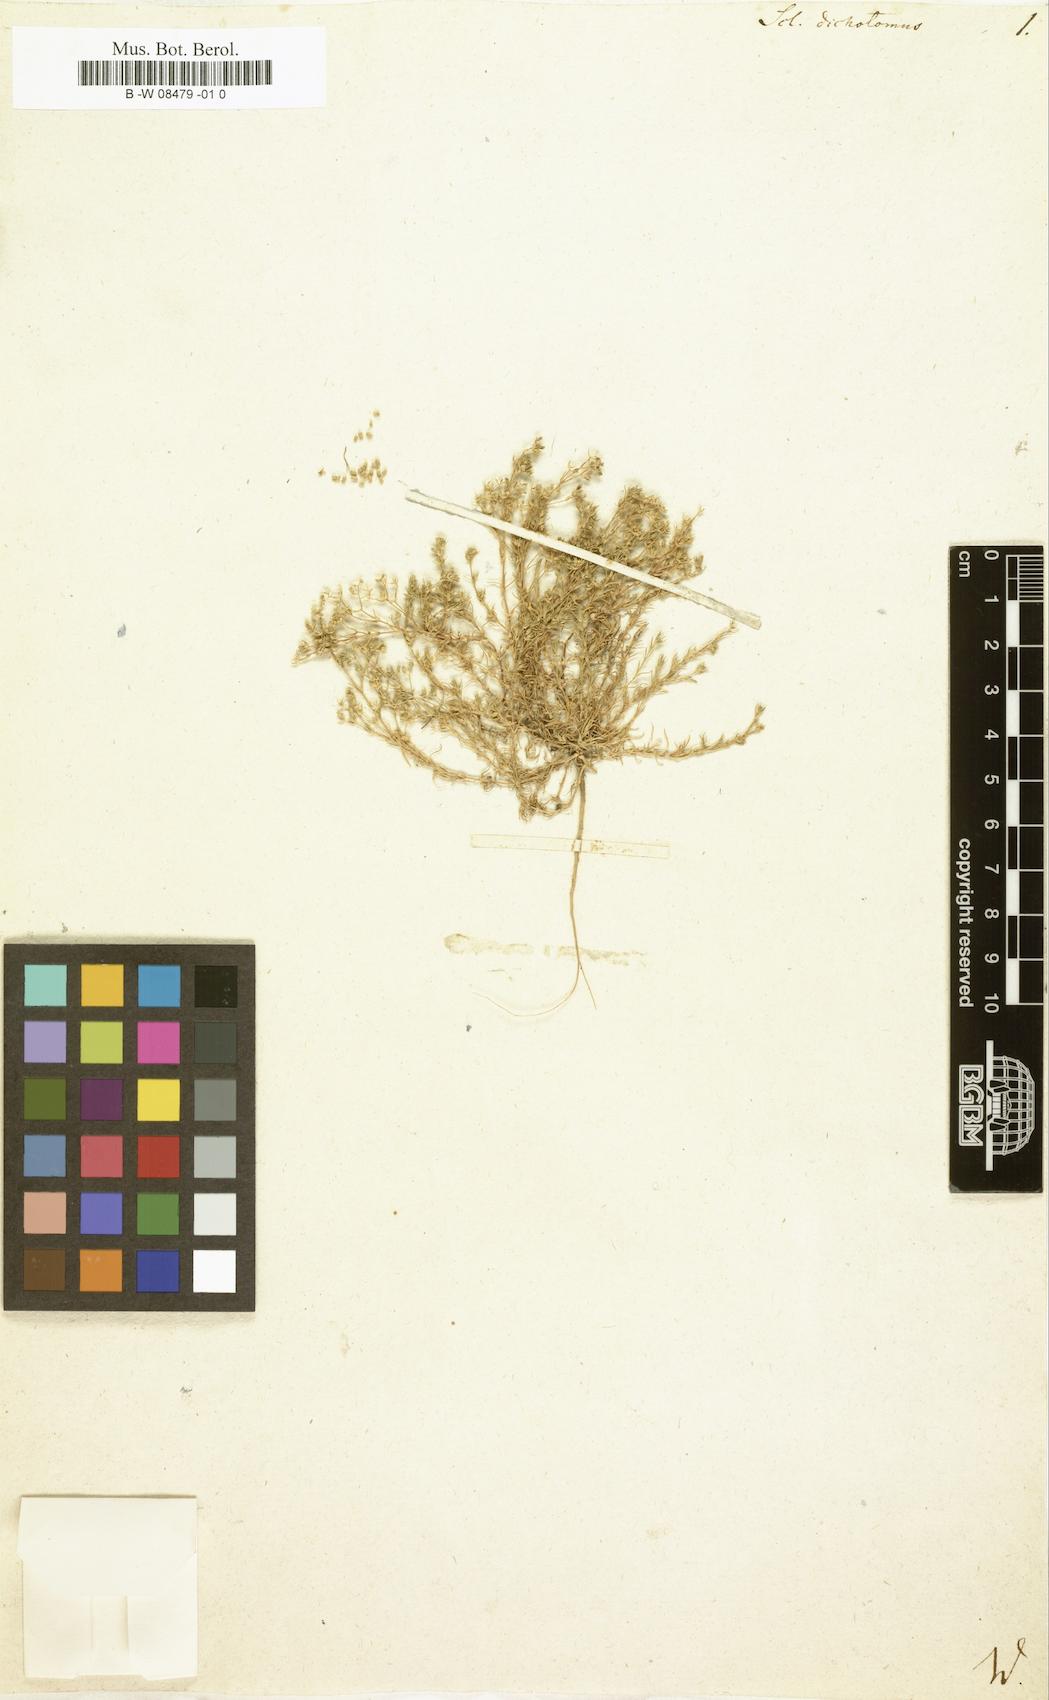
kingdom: Plantae
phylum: Tracheophyta
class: Magnoliopsida
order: Caryophyllales
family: Caryophyllaceae
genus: Scleranthus
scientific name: Scleranthus perennis
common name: Perennial knawel
